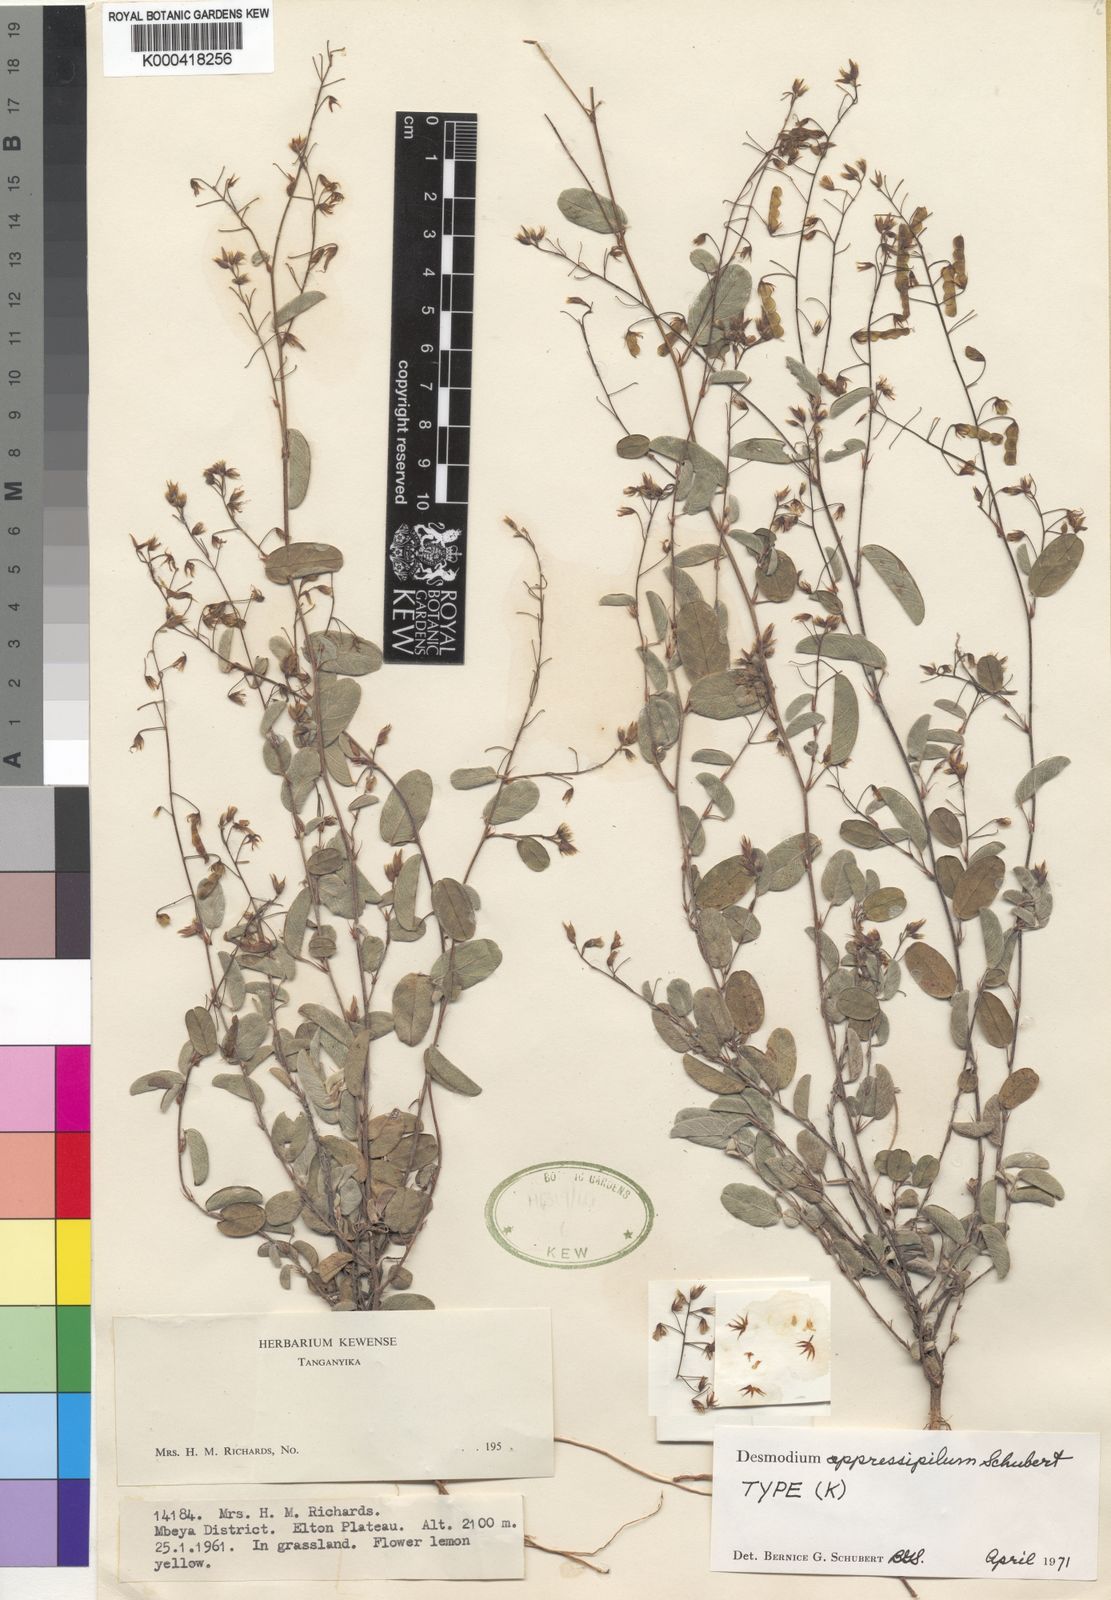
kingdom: Plantae
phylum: Tracheophyta
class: Magnoliopsida
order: Fabales
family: Fabaceae
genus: Grona
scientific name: Grona appressipila
